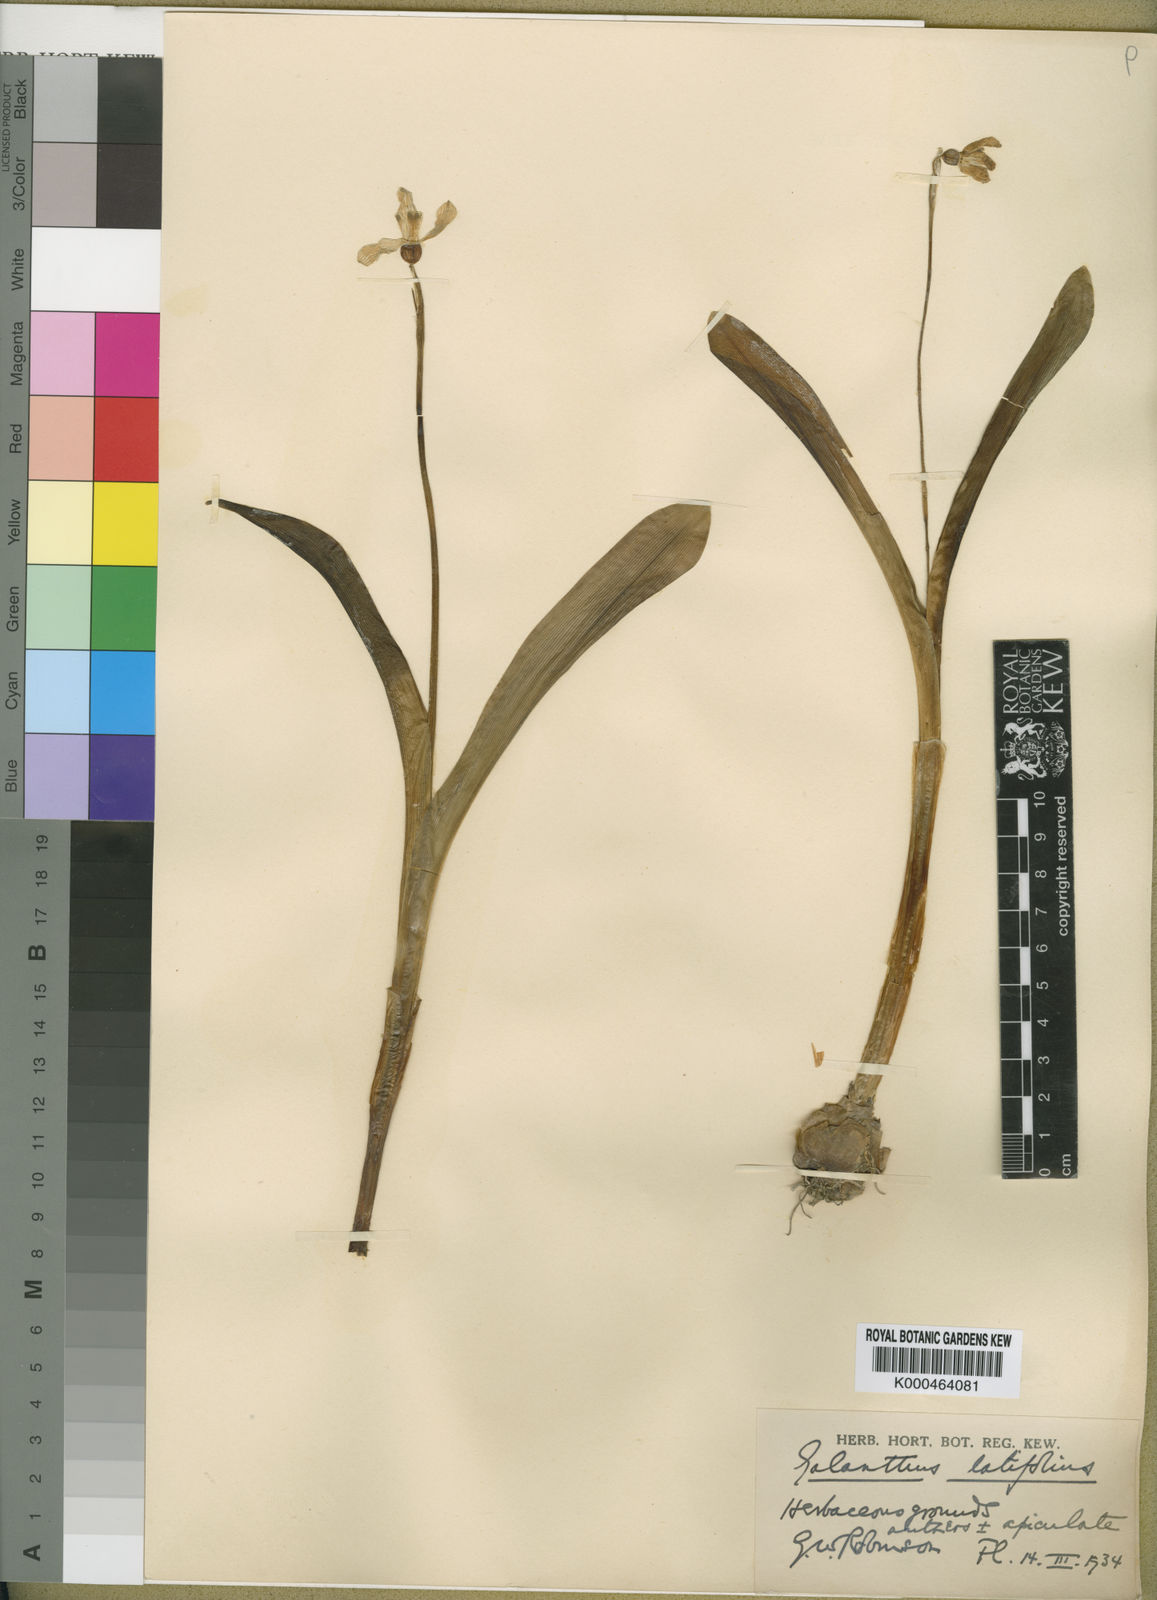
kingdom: Plantae
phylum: Tracheophyta
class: Liliopsida
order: Asparagales
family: Amaryllidaceae
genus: Galanthus
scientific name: Galanthus
